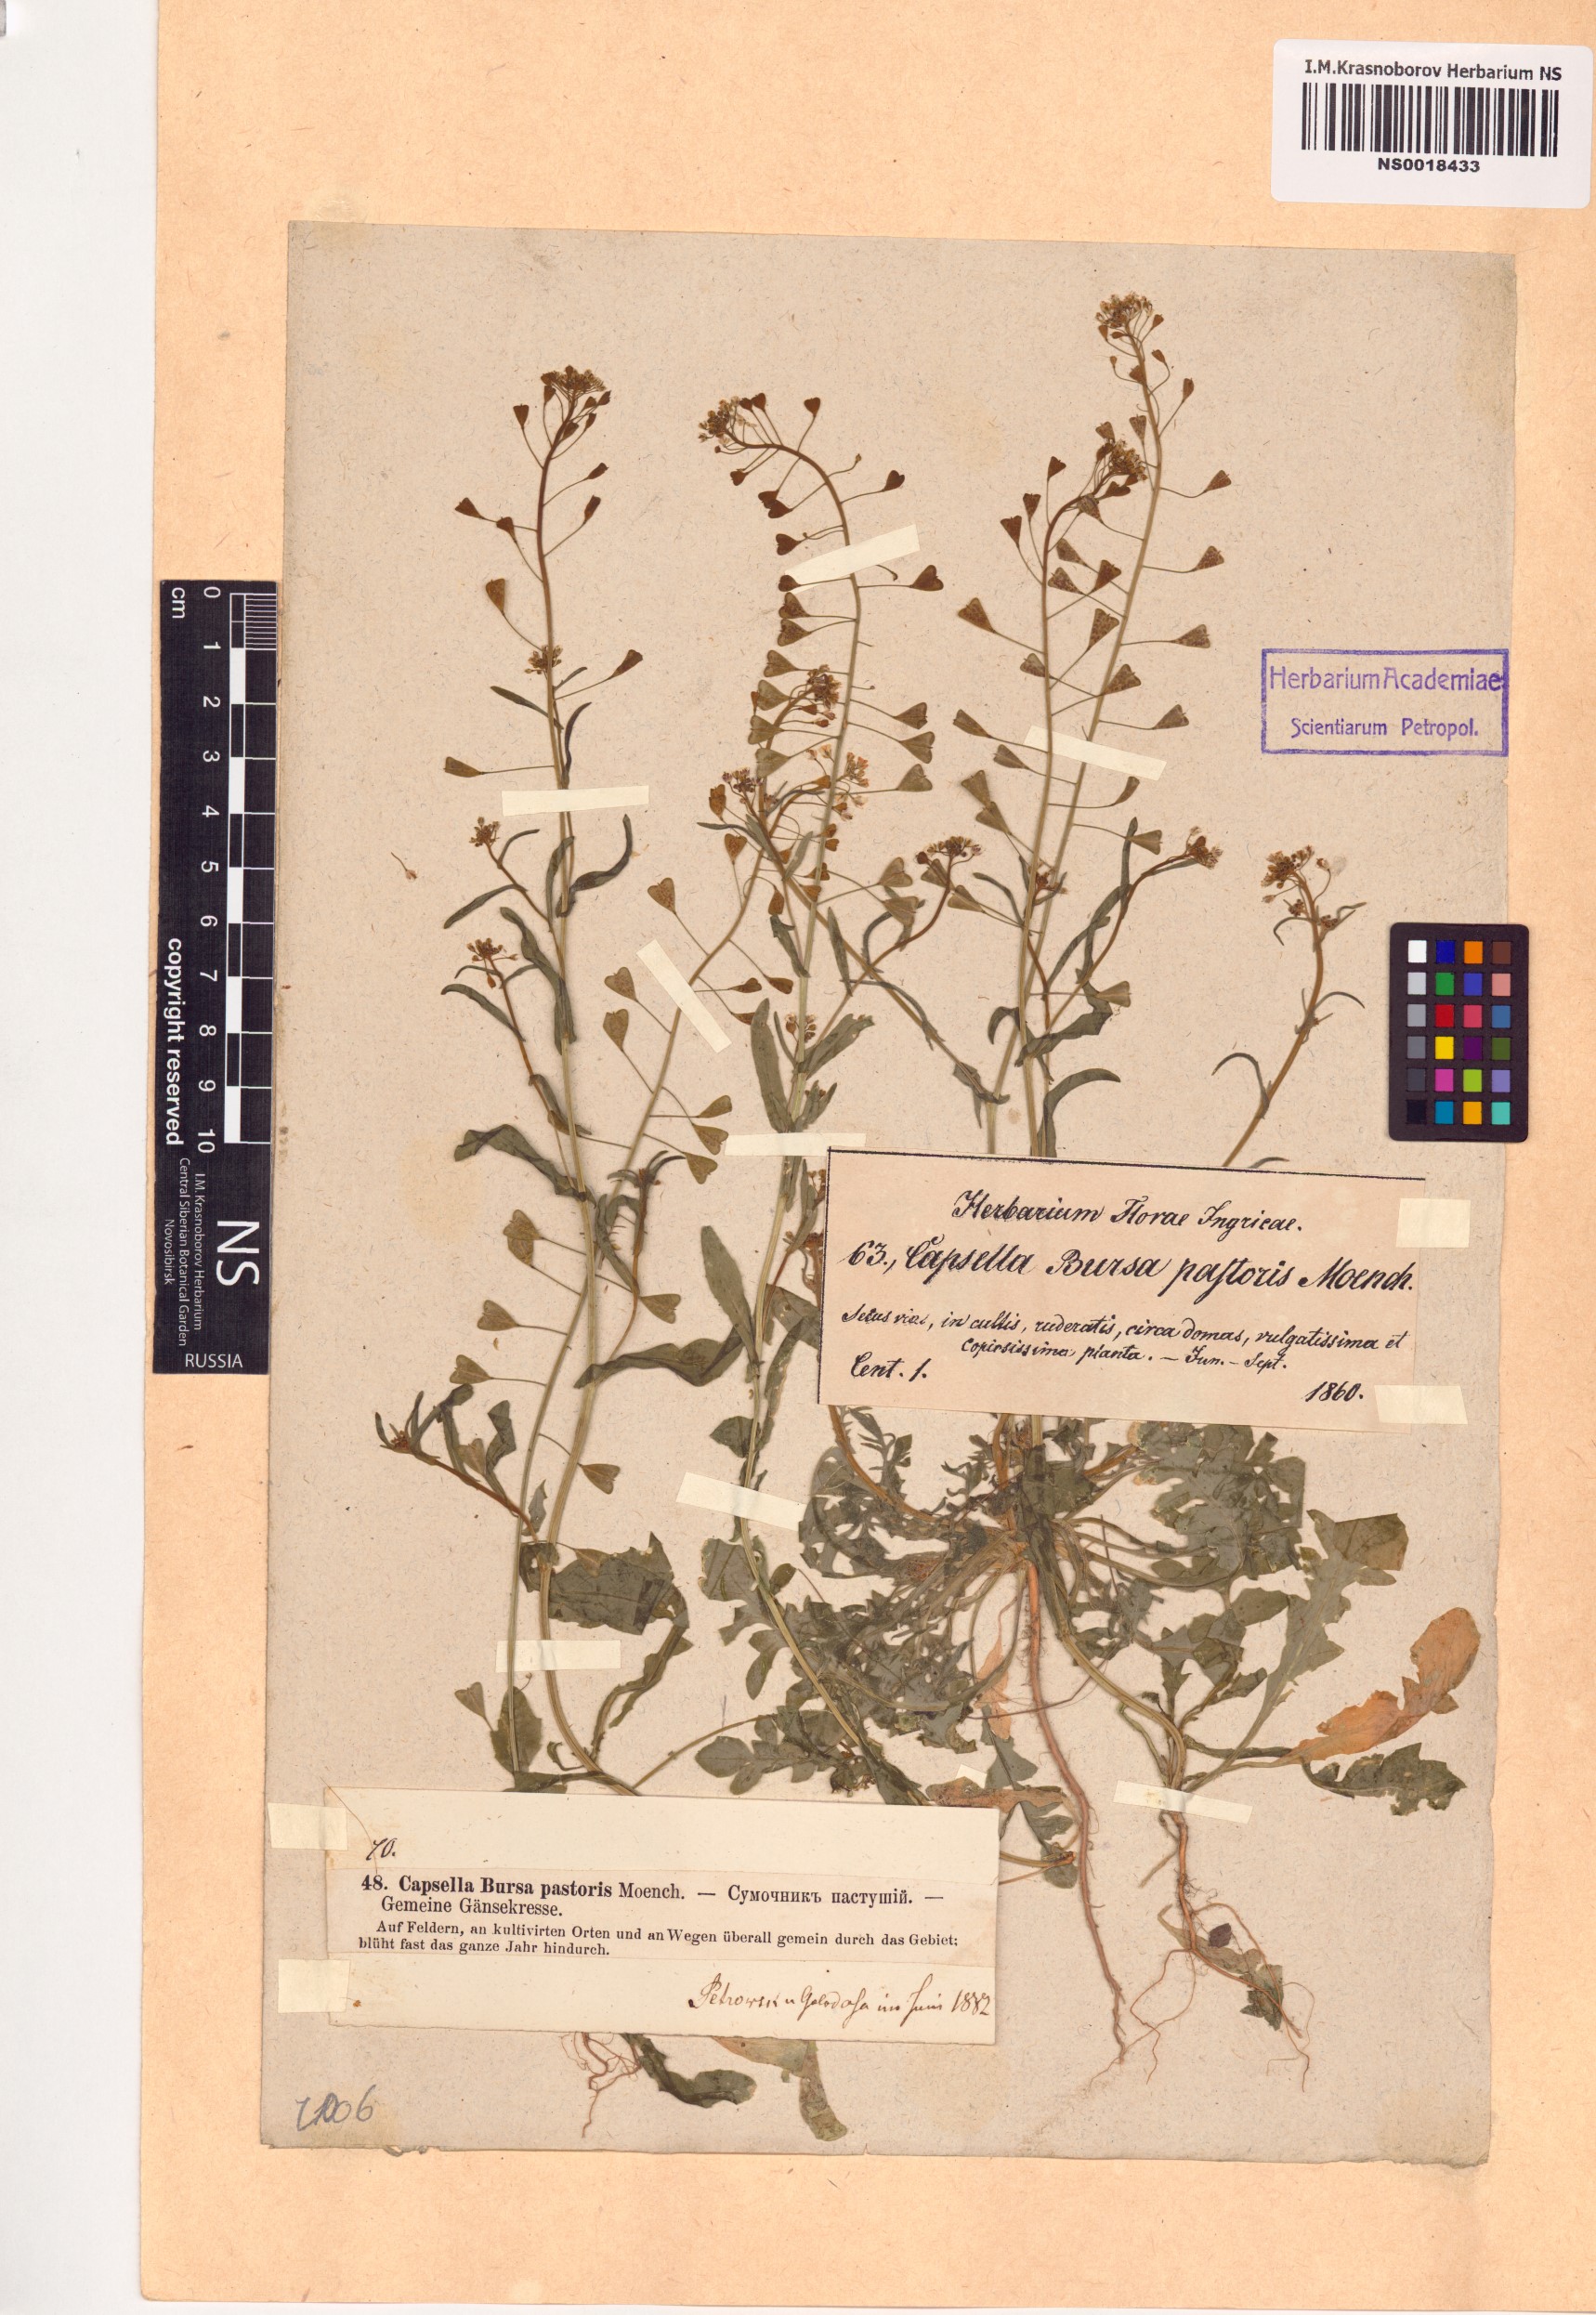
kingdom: Plantae
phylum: Tracheophyta
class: Magnoliopsida
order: Brassicales
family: Brassicaceae
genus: Capsella
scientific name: Capsella bursa-pastoris
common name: Shepherd's purse
